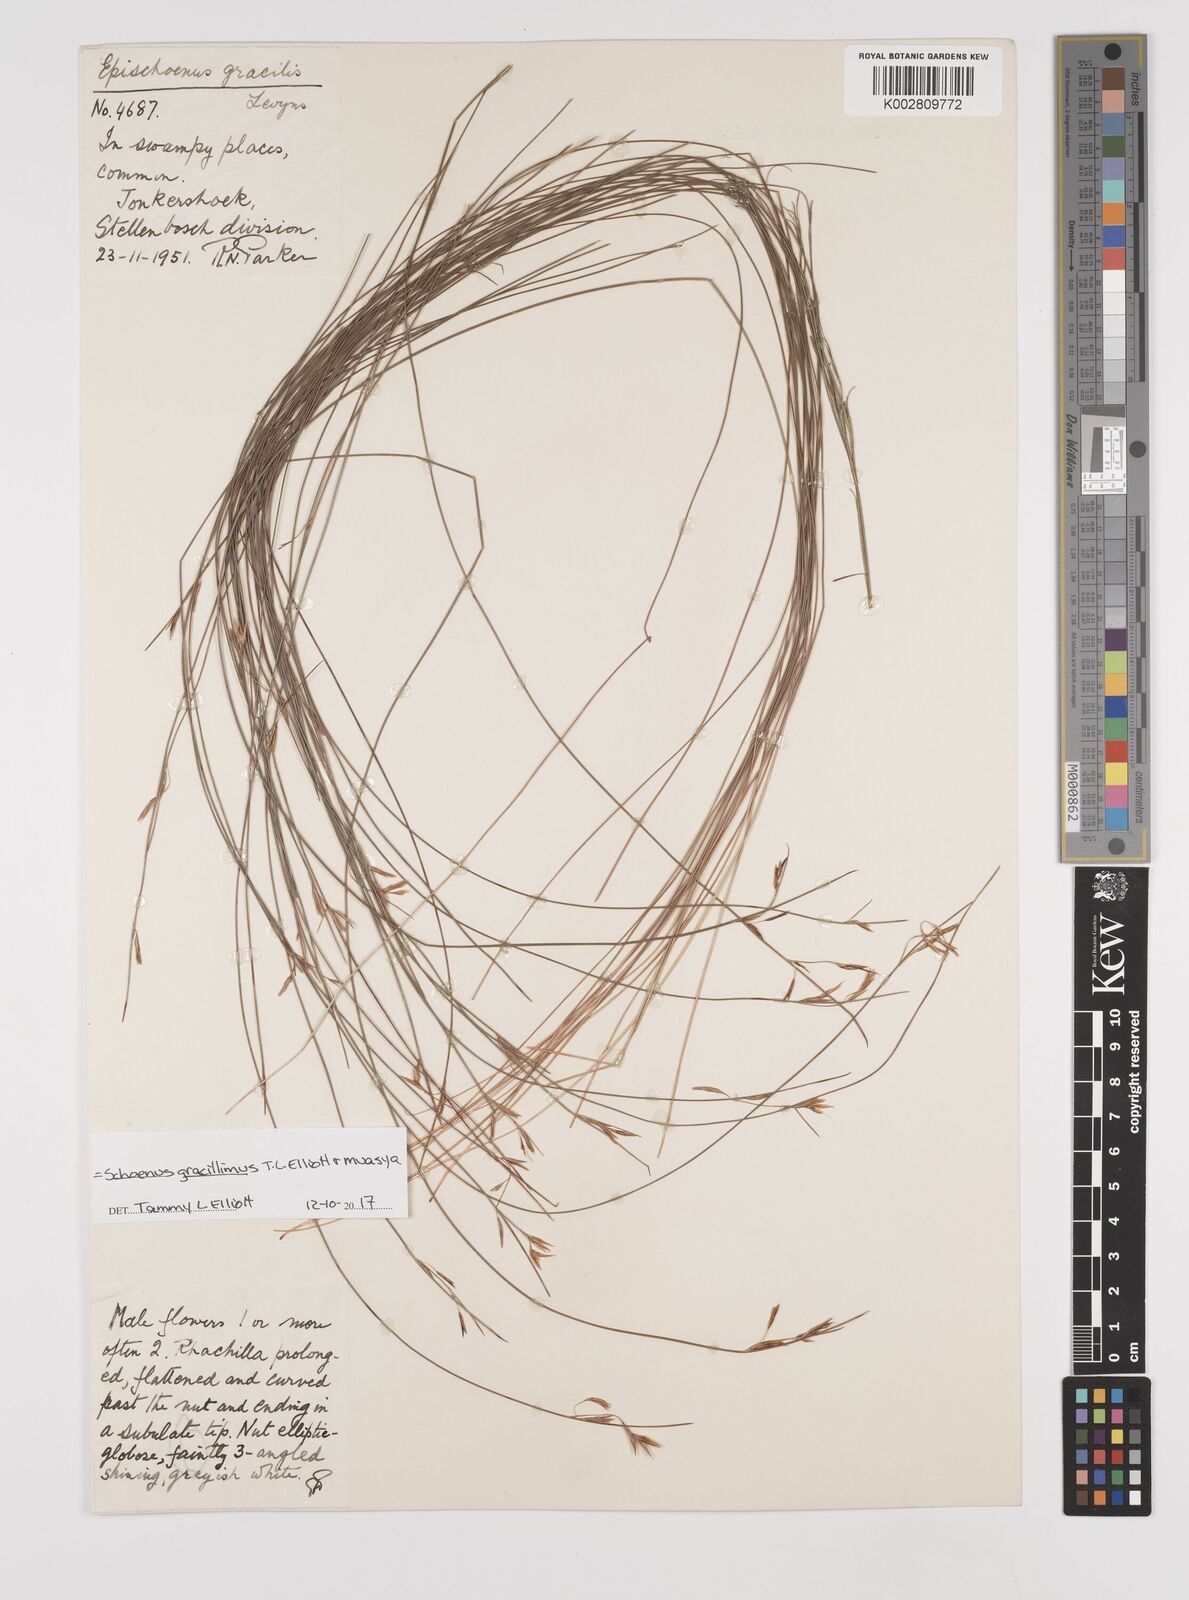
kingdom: Plantae
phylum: Tracheophyta
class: Liliopsida
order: Poales
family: Cyperaceae
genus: Rhynchospora
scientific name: Rhynchospora racemosa
